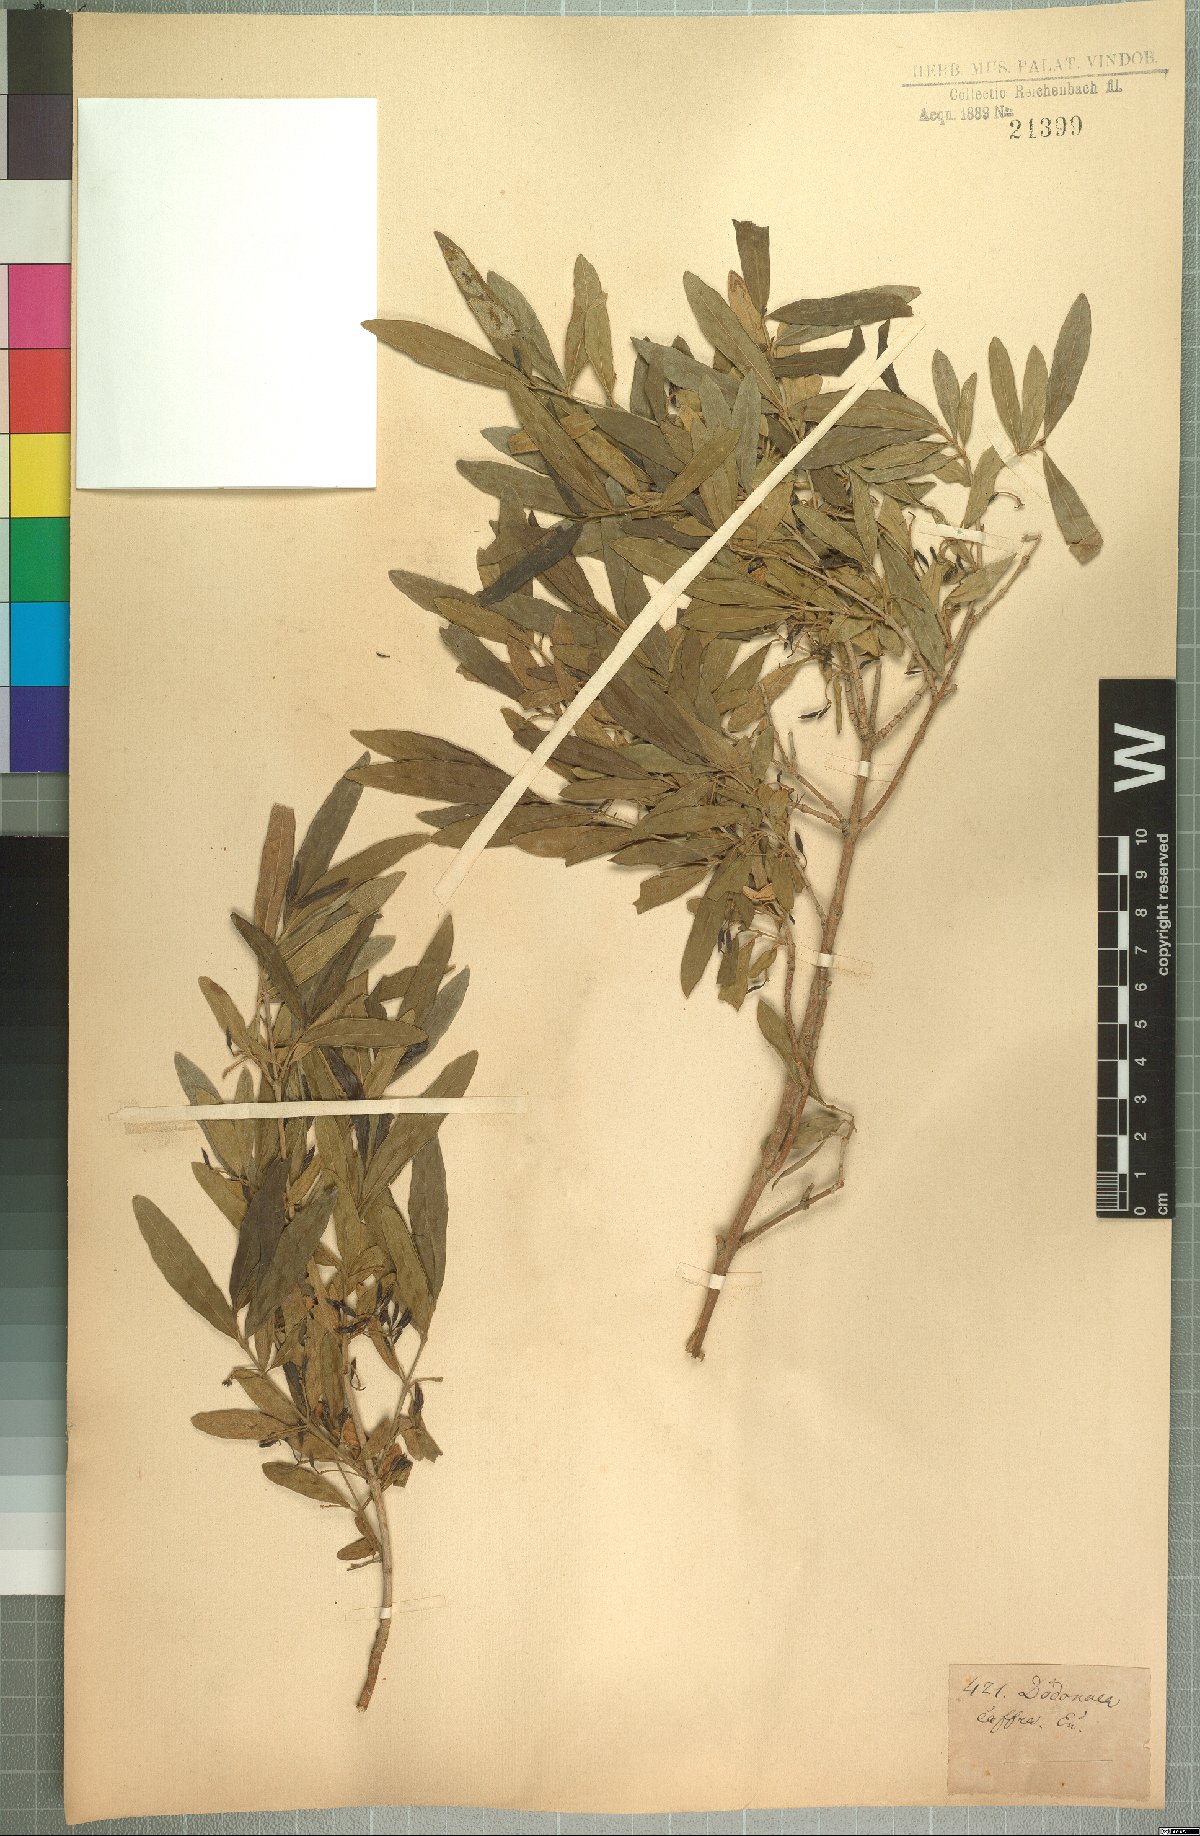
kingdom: Plantae
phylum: Tracheophyta
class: Magnoliopsida
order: Myrtales
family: Combretaceae
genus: Combretum
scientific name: Combretum caffrum
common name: Cape bushwillow
